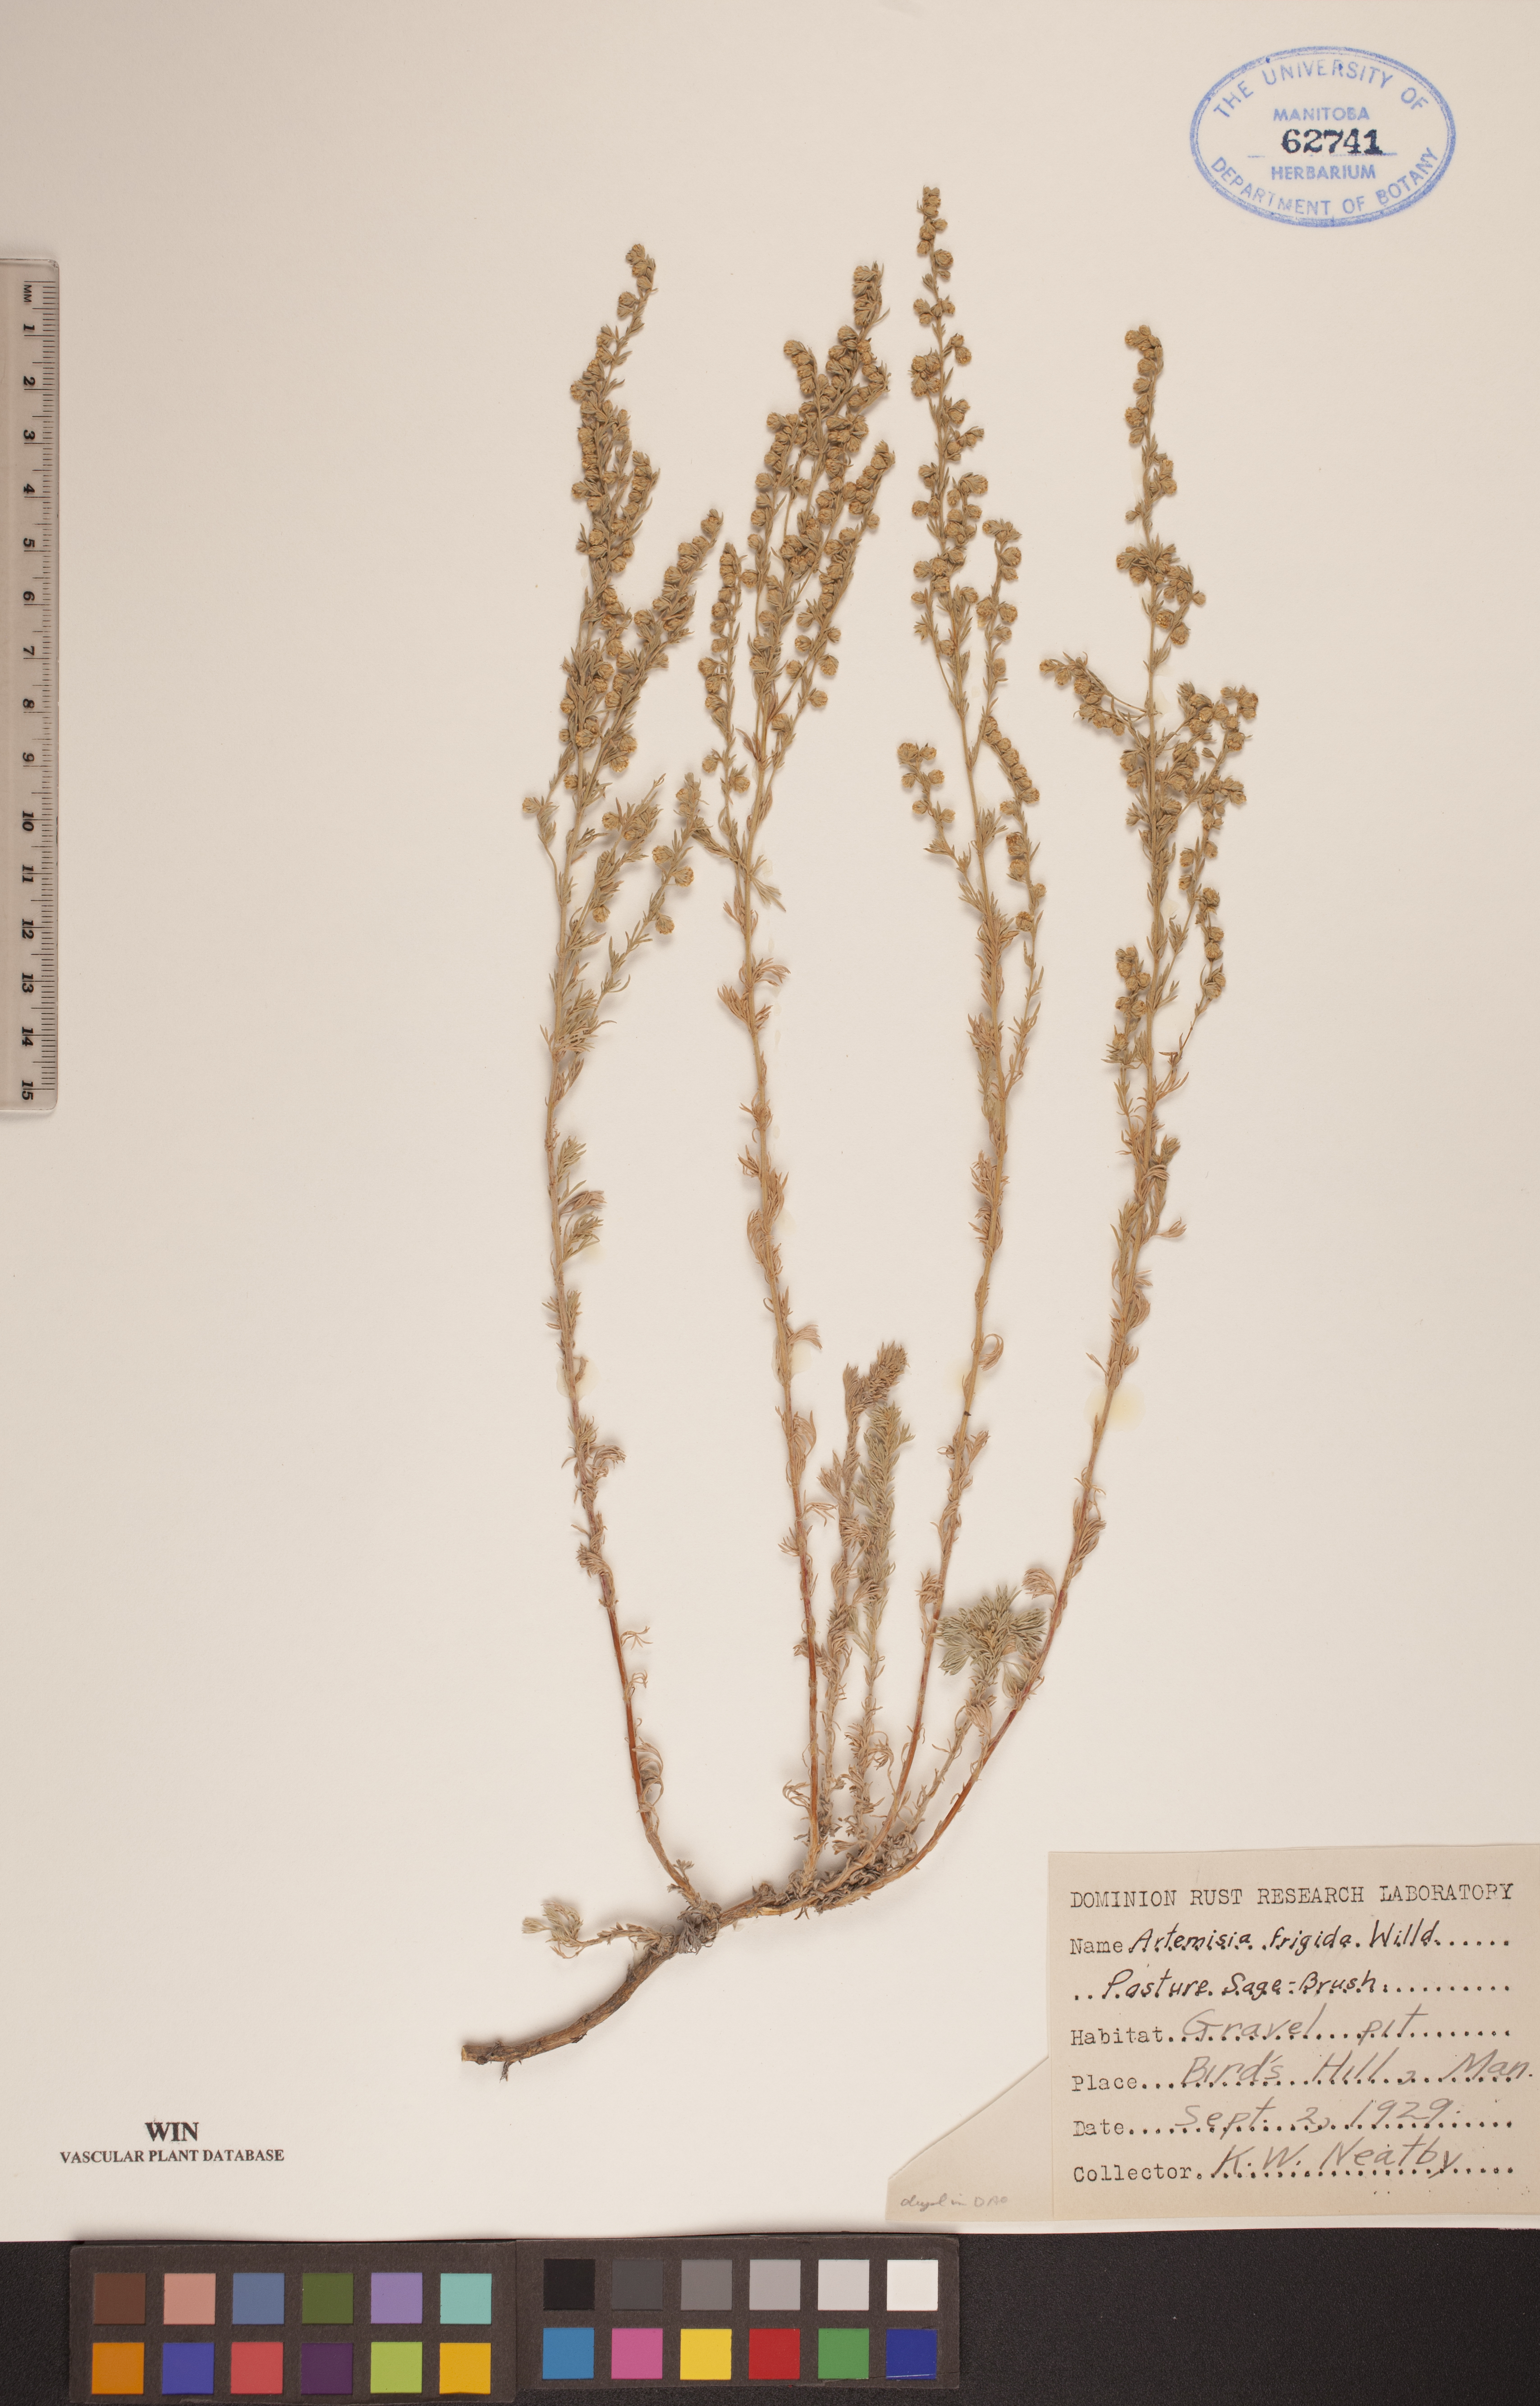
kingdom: Plantae
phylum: Tracheophyta
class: Magnoliopsida
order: Asterales
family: Asteraceae
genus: Artemisia
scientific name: Artemisia frigida
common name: Prairie sagewort
